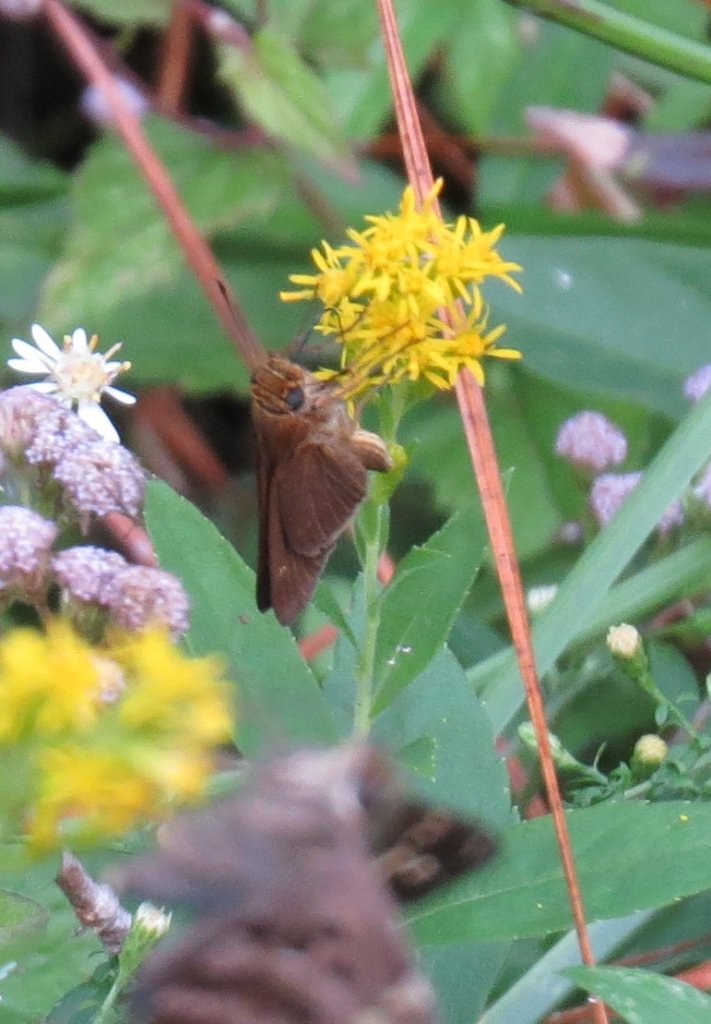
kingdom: Animalia
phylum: Arthropoda
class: Insecta
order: Lepidoptera
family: Hesperiidae
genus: Panoquina
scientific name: Panoquina ocola
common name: Ocola Skipper
